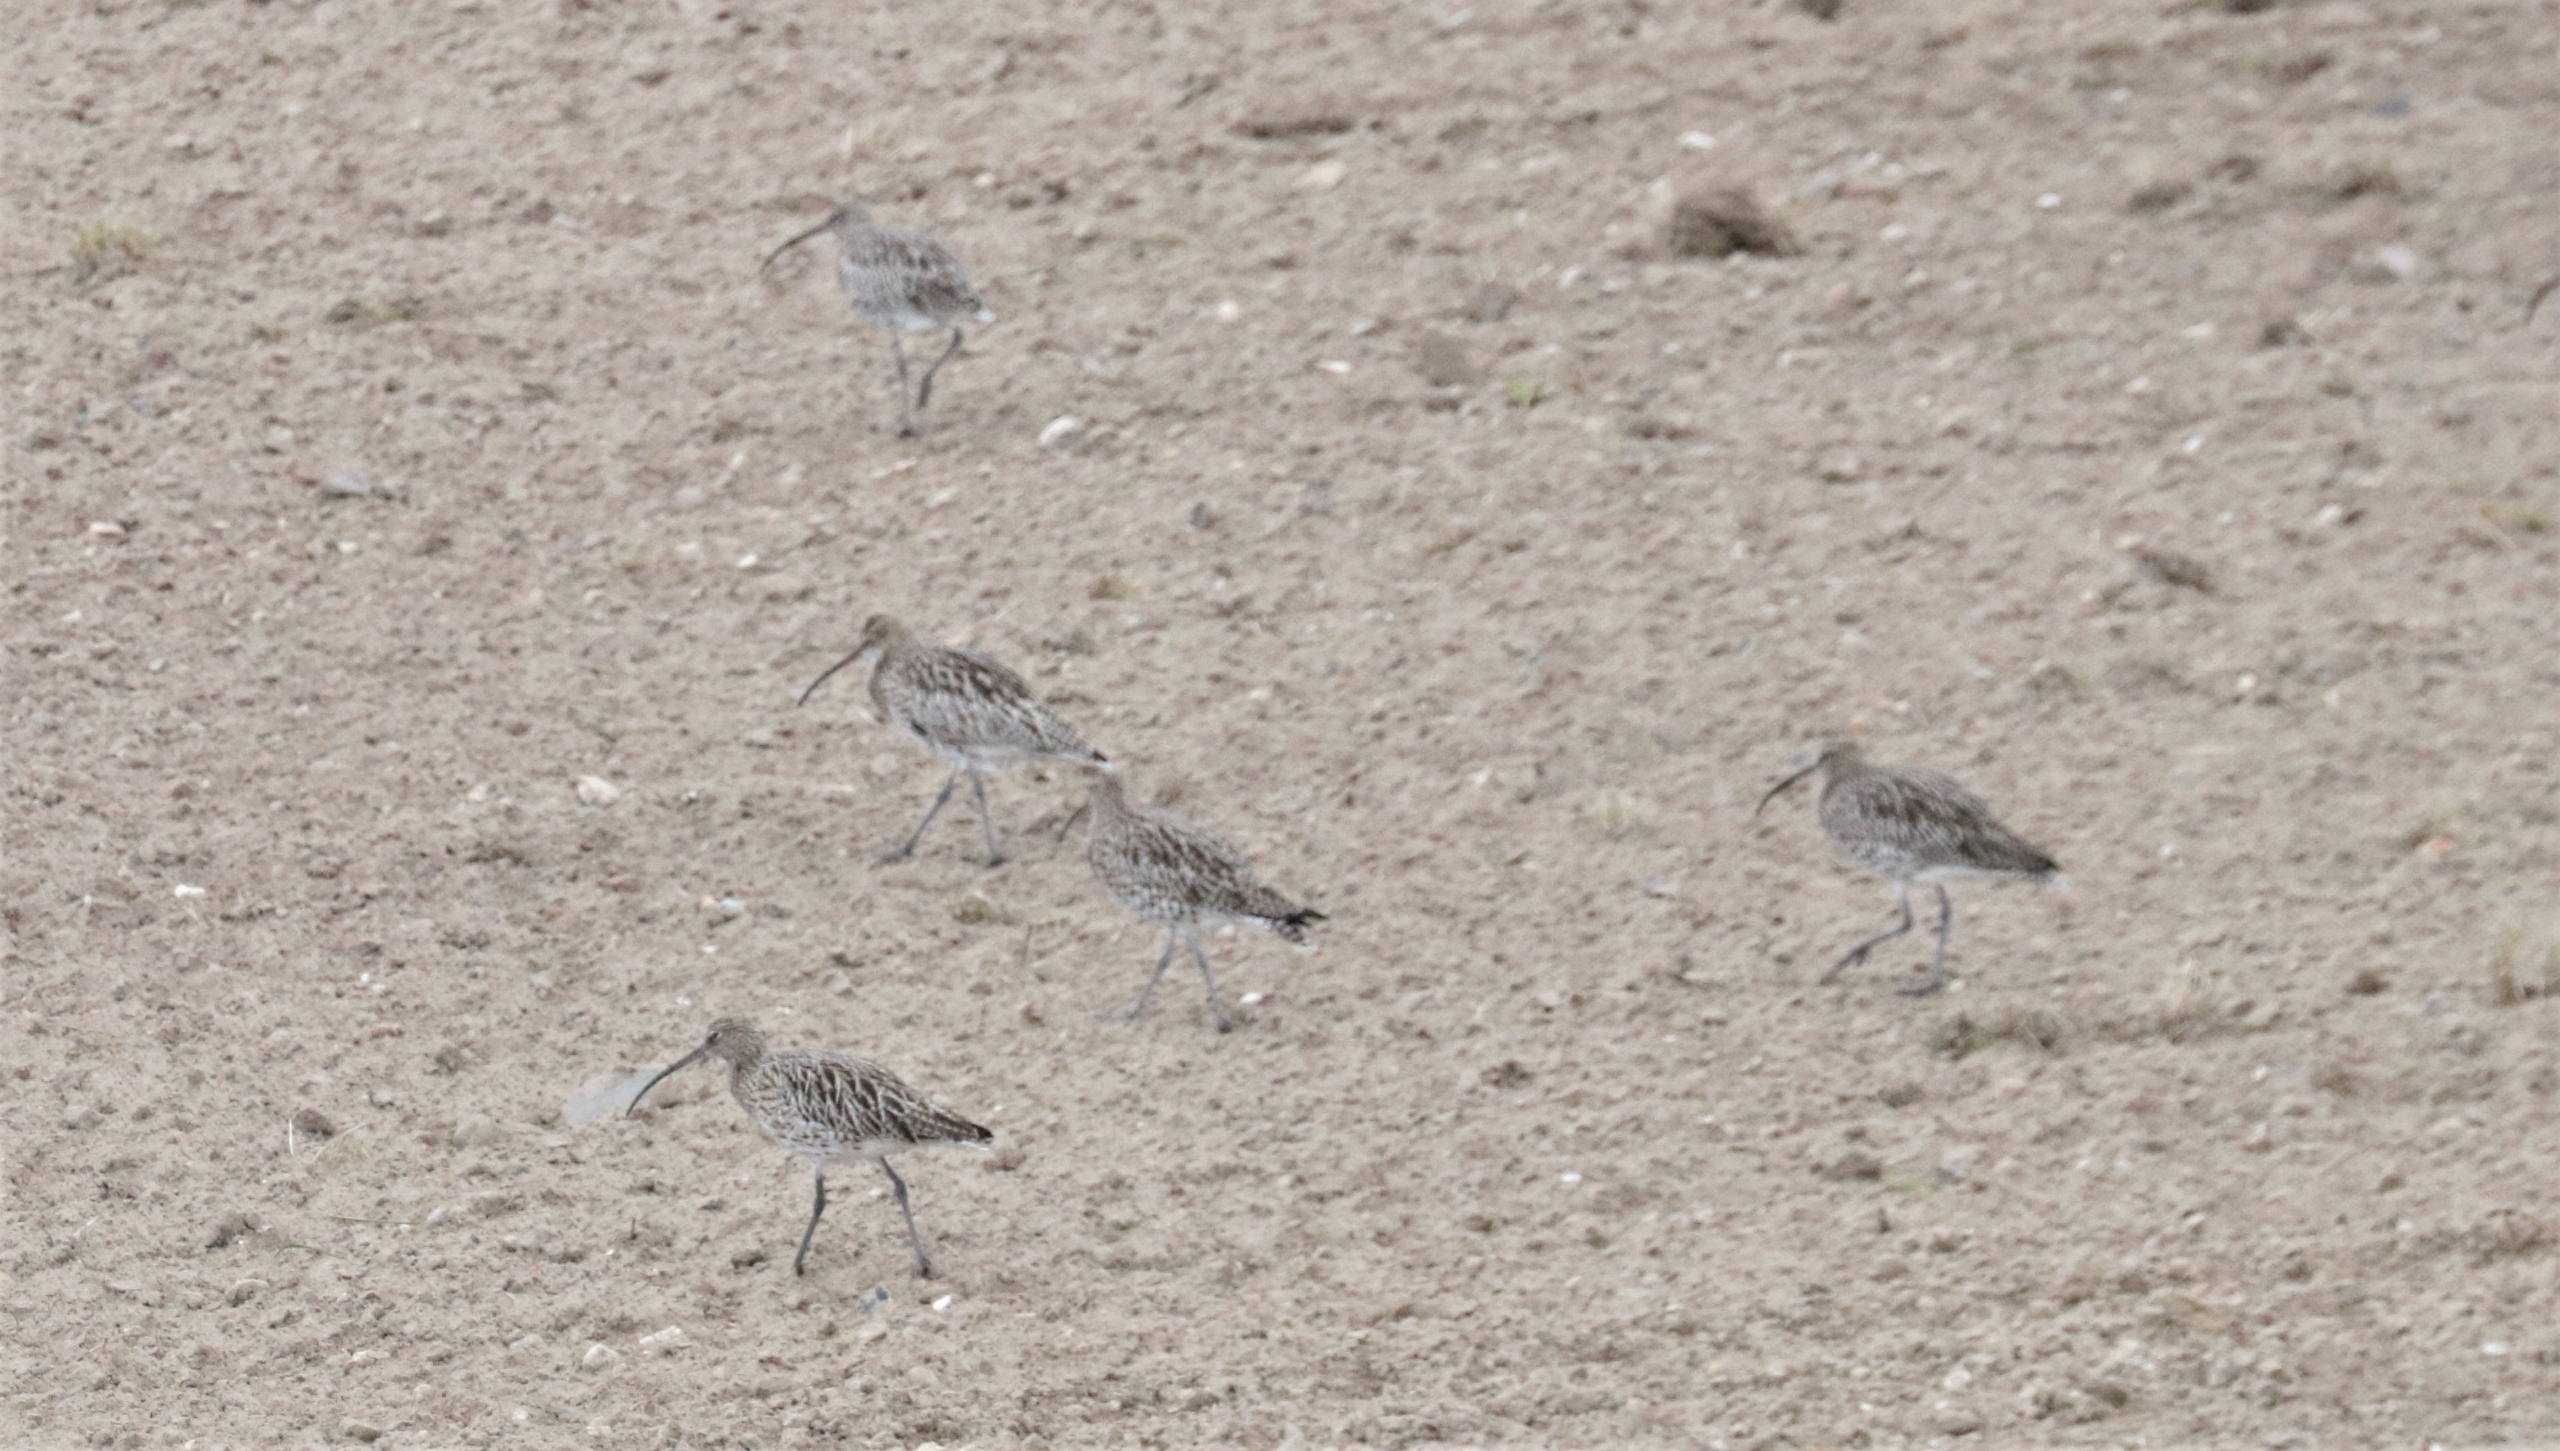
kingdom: Animalia
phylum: Chordata
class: Aves
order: Charadriiformes
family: Scolopacidae
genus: Numenius
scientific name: Numenius arquata
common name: Storspove
